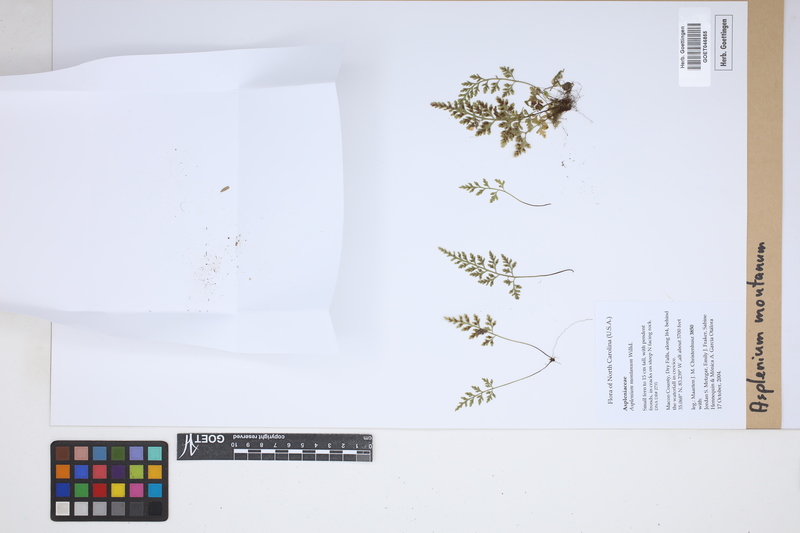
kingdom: Plantae
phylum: Tracheophyta
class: Polypodiopsida
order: Polypodiales
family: Aspleniaceae
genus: Asplenium
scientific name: Asplenium montanum
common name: Mountain spleenwort
